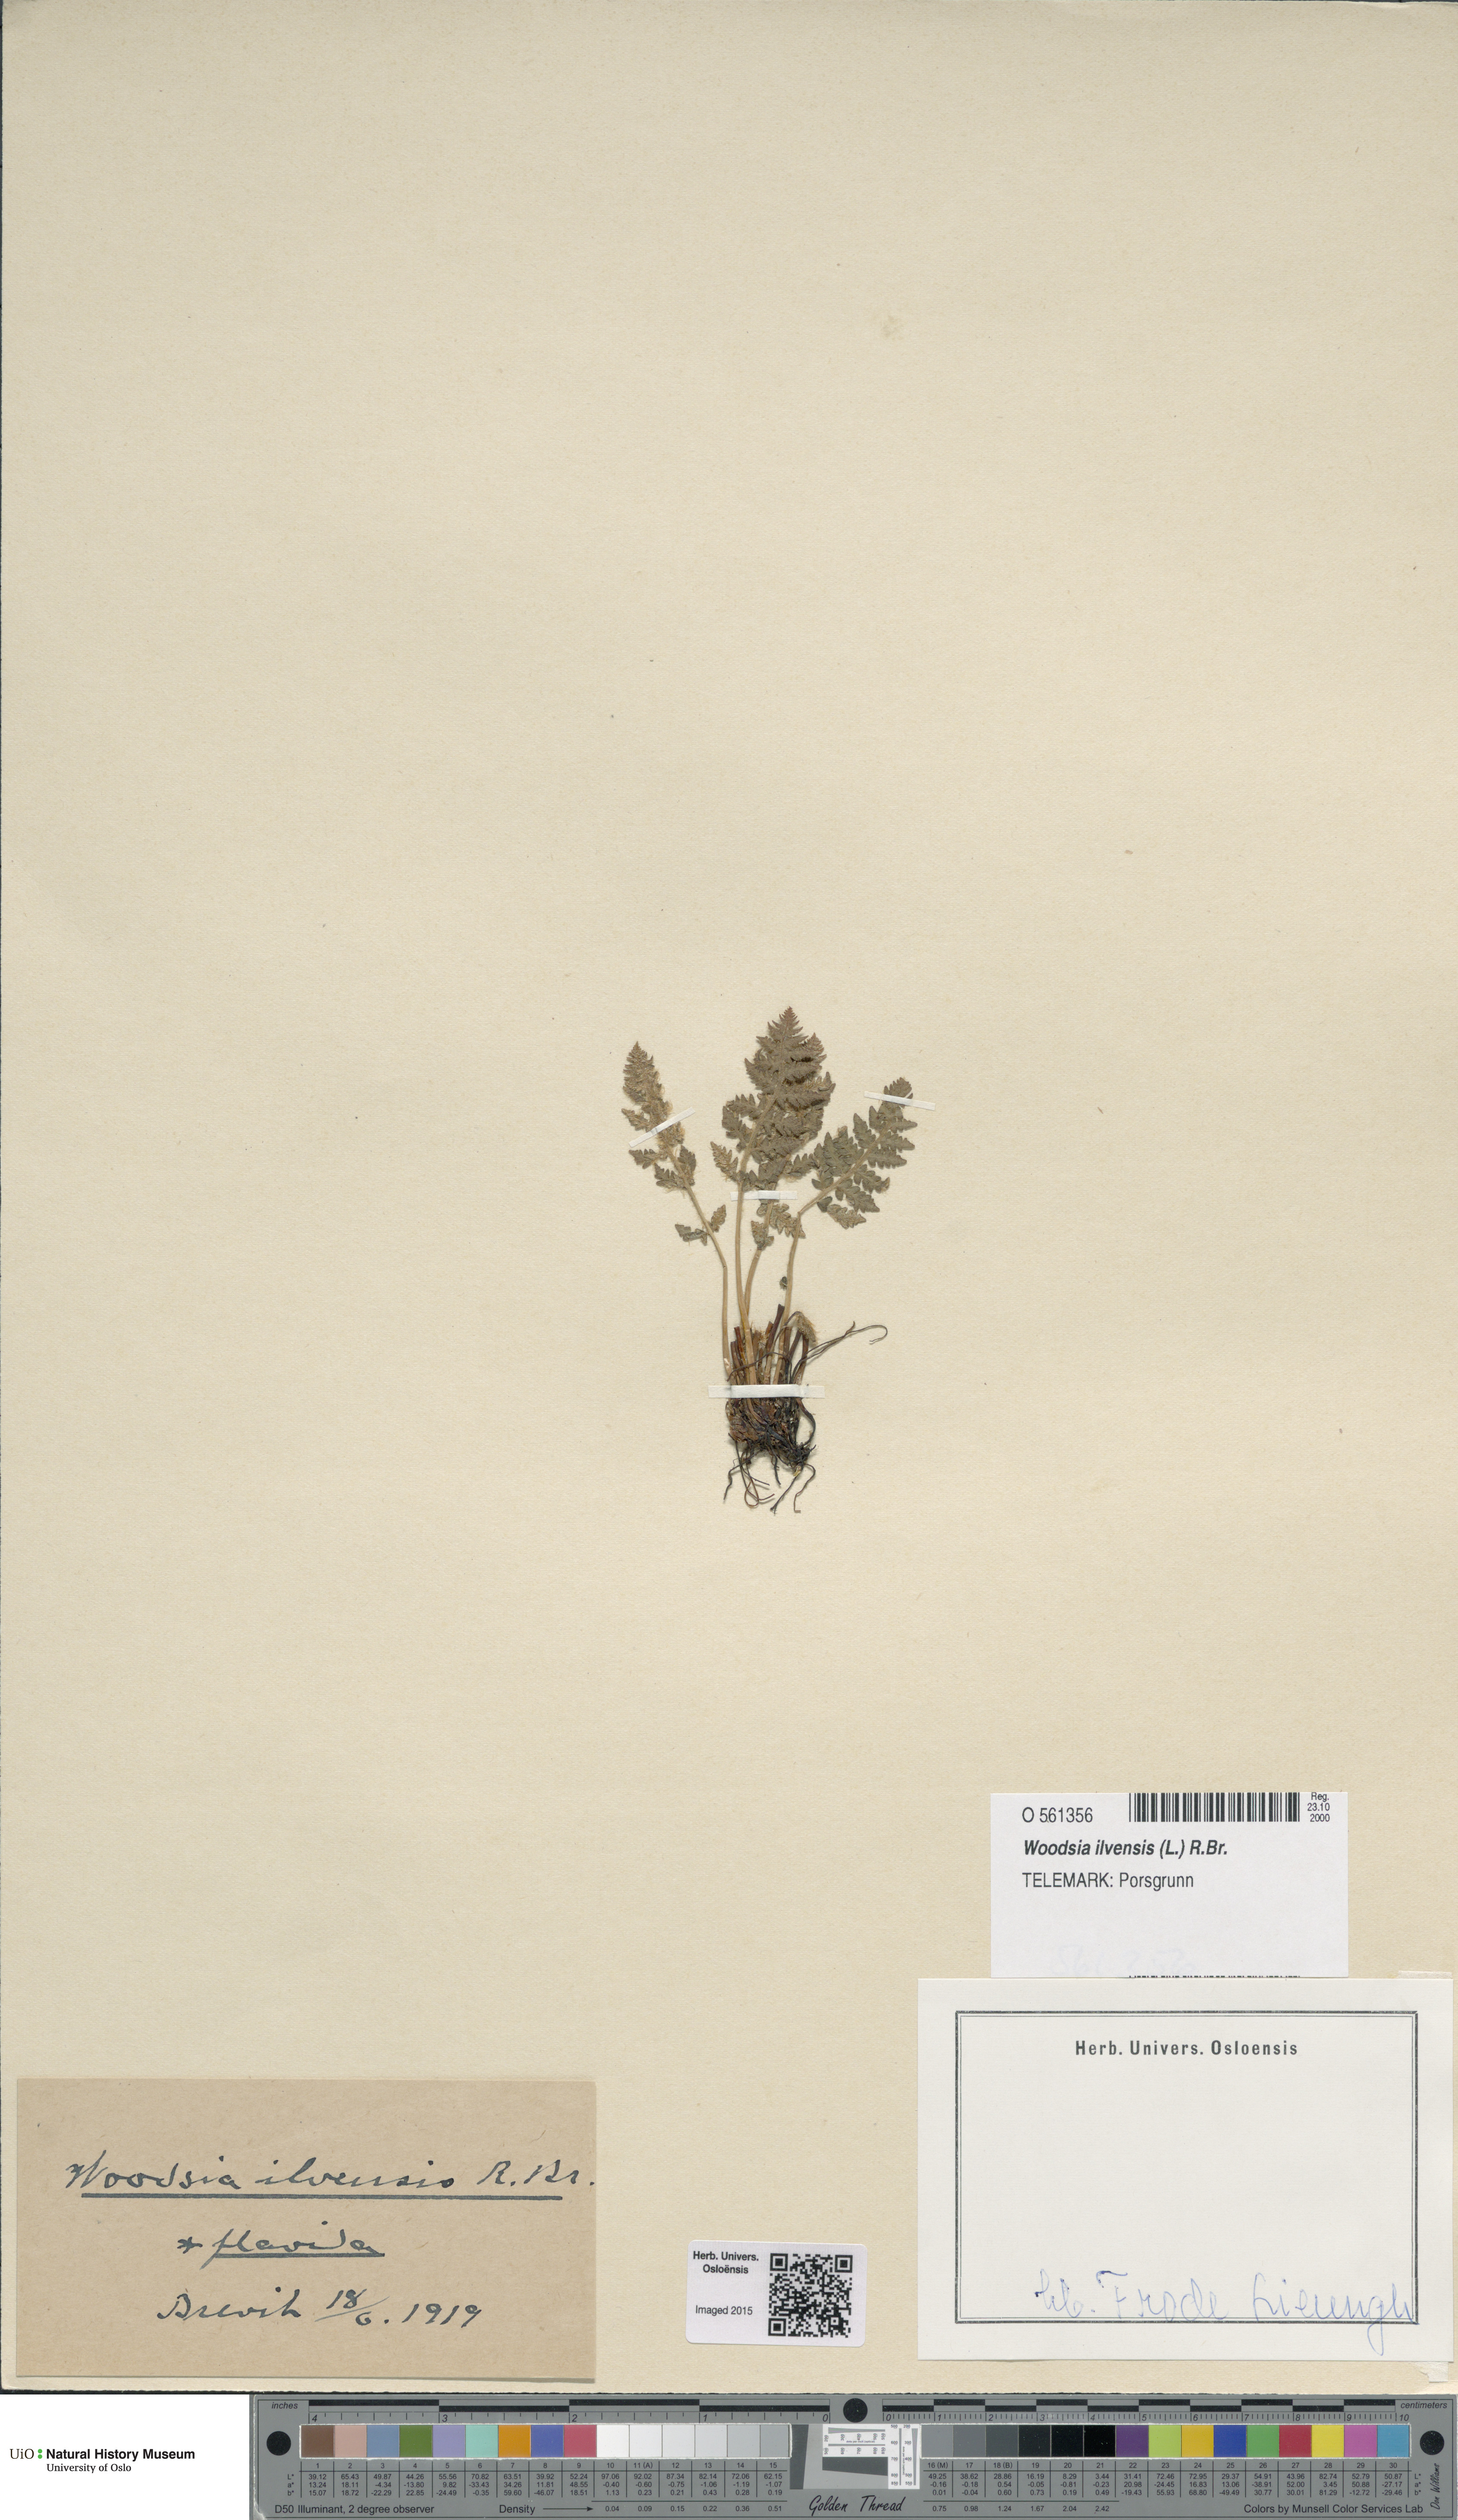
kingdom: Plantae
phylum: Tracheophyta
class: Polypodiopsida
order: Polypodiales
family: Woodsiaceae
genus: Woodsia
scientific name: Woodsia ilvensis
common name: Fragrant woodsia
